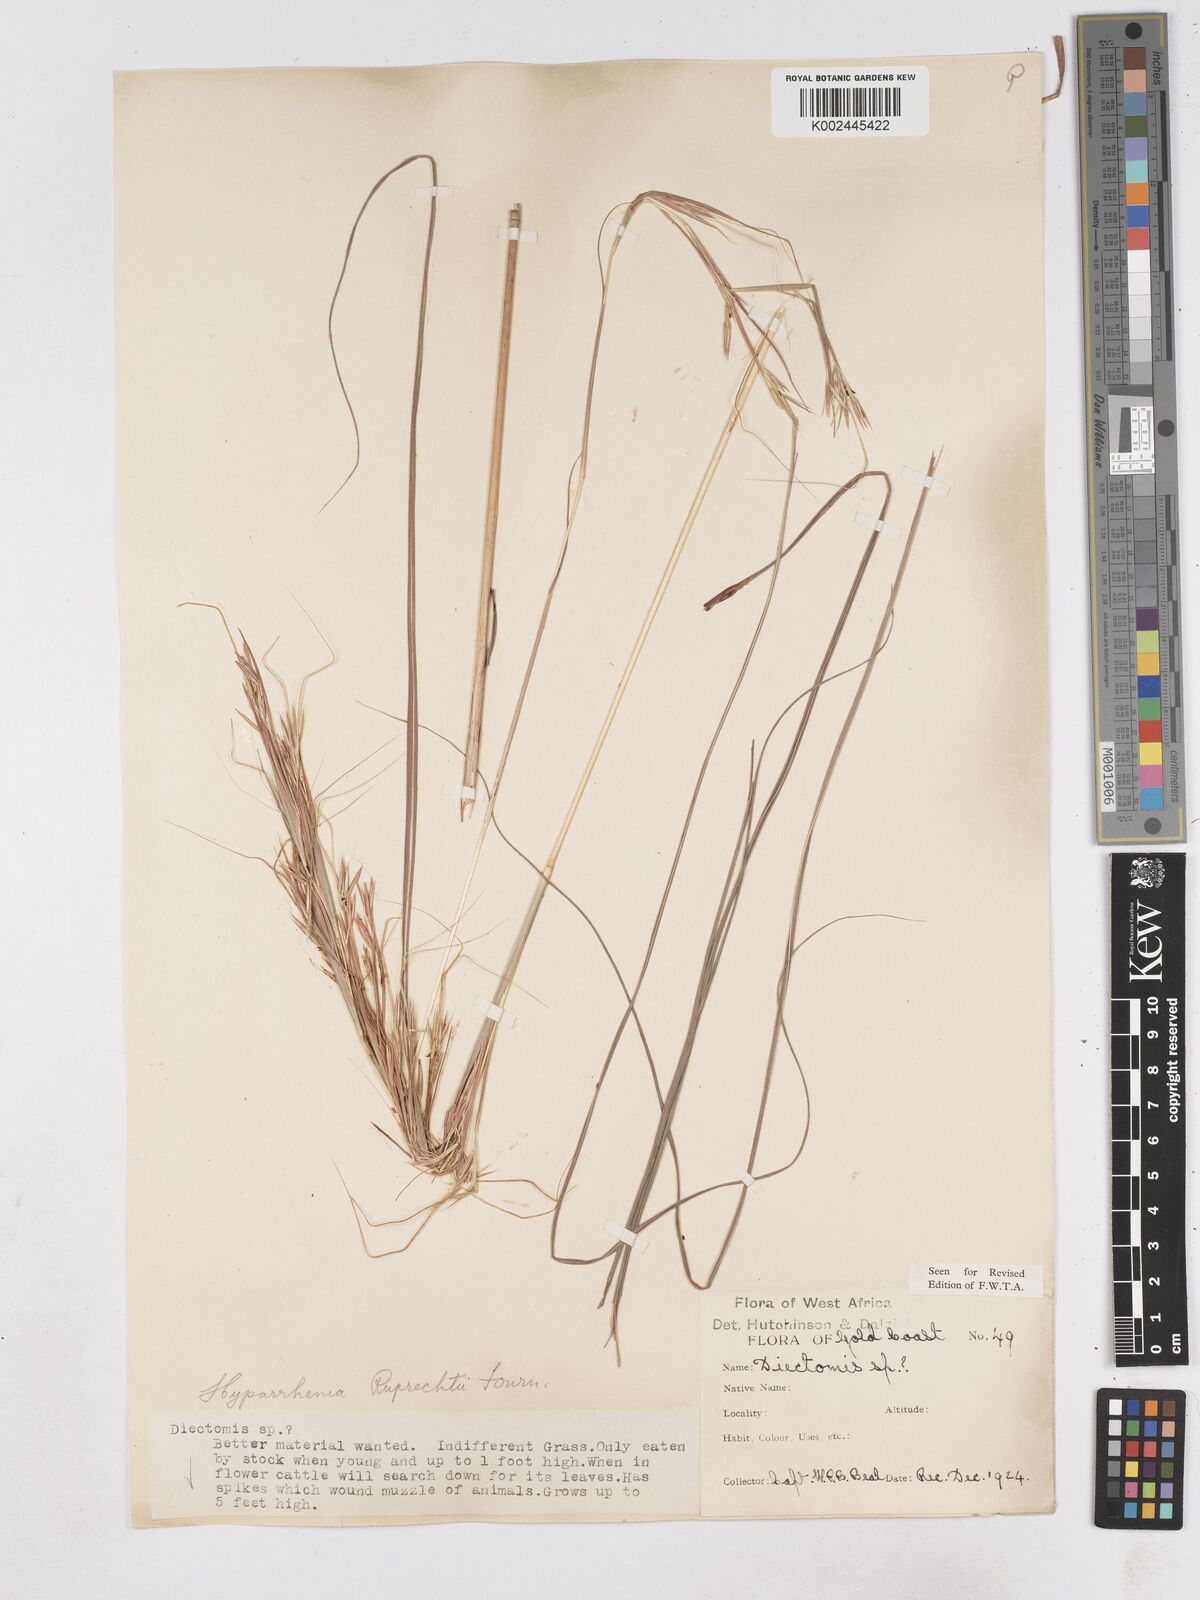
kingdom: Plantae
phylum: Tracheophyta
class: Liliopsida
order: Poales
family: Poaceae
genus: Hyperthelia
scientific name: Hyperthelia dissoluta
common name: Yellow thatching grass
